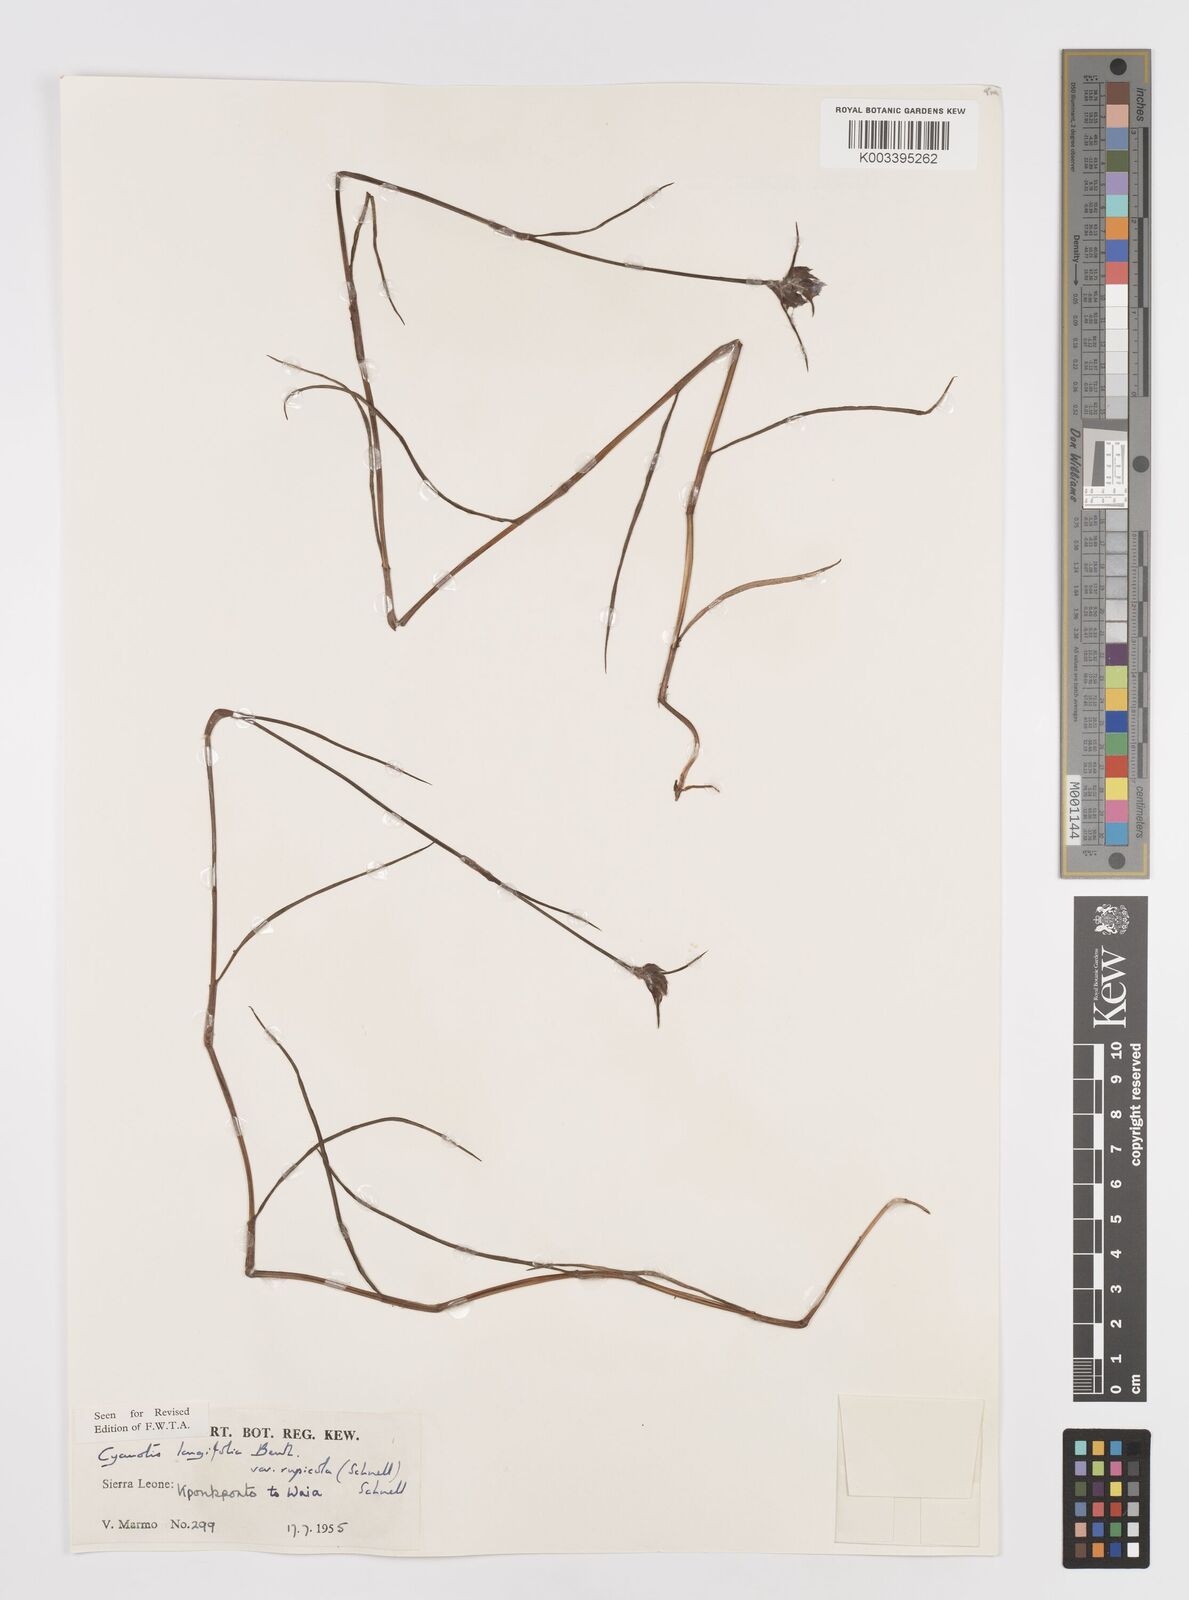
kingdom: Plantae
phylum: Tracheophyta
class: Liliopsida
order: Commelinales
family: Commelinaceae
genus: Cyanotis
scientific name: Cyanotis longifolia
